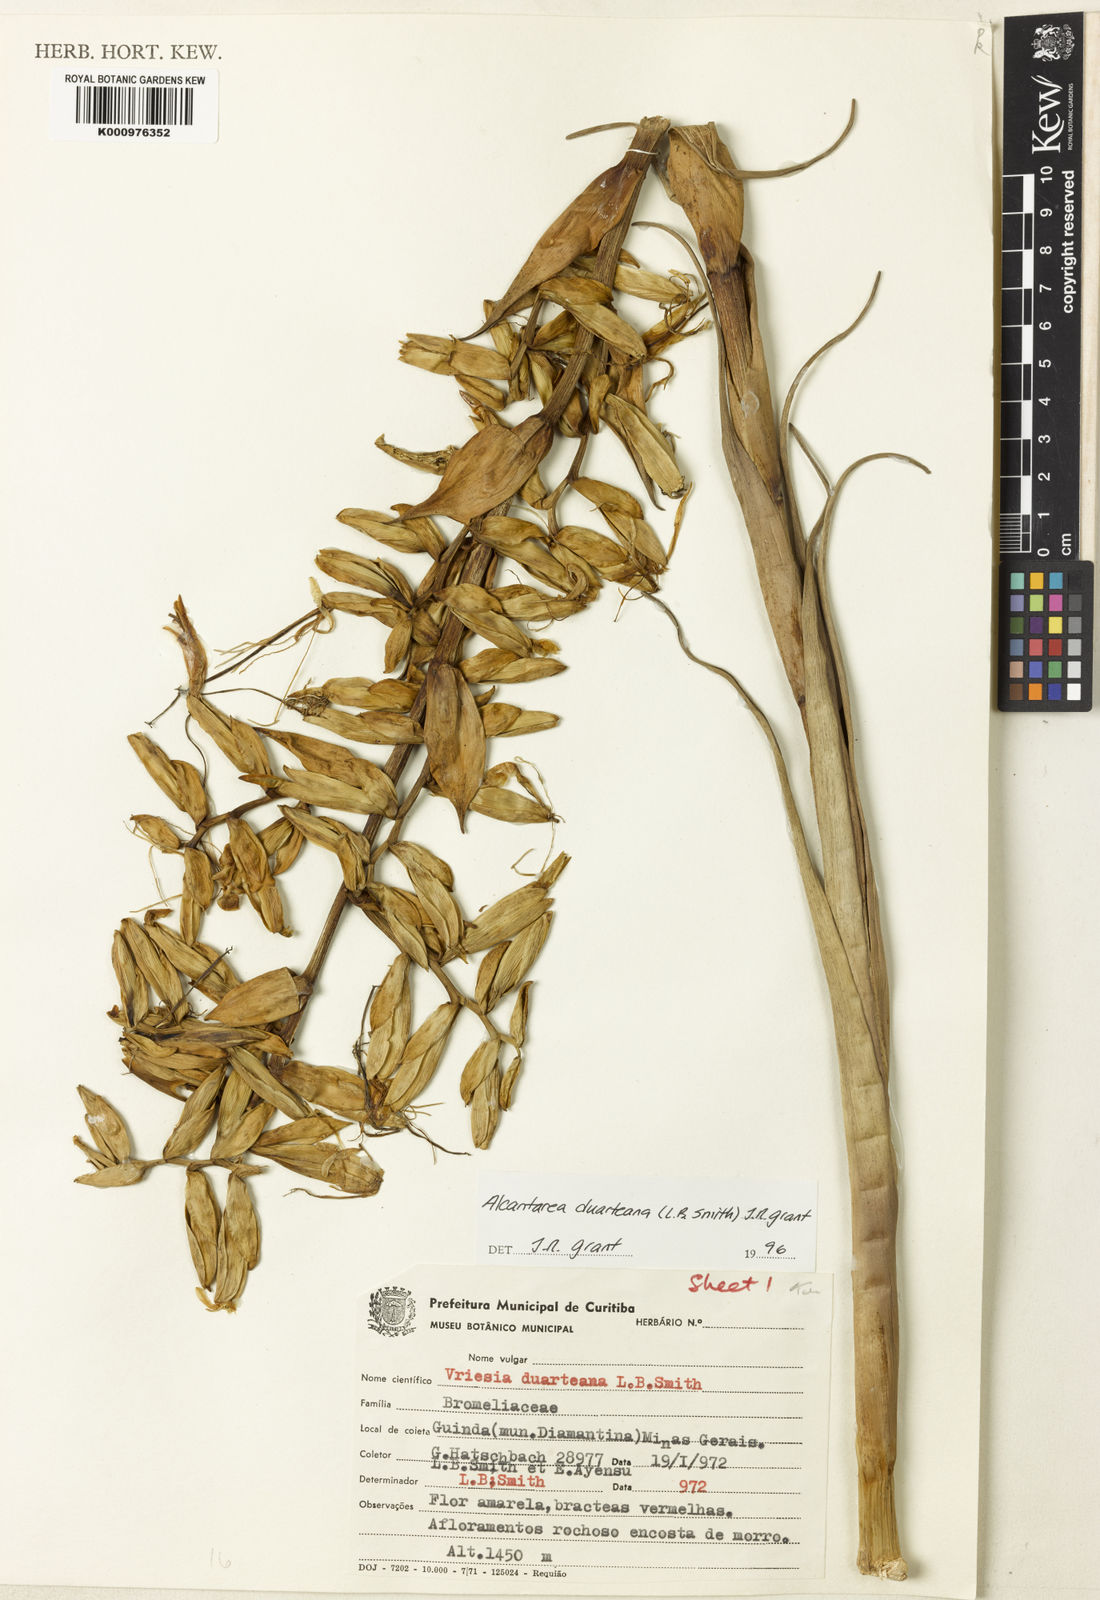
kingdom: Plantae
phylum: Tracheophyta
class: Liliopsida
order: Poales
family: Bromeliaceae
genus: Alcantarea
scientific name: Alcantarea duarteana
